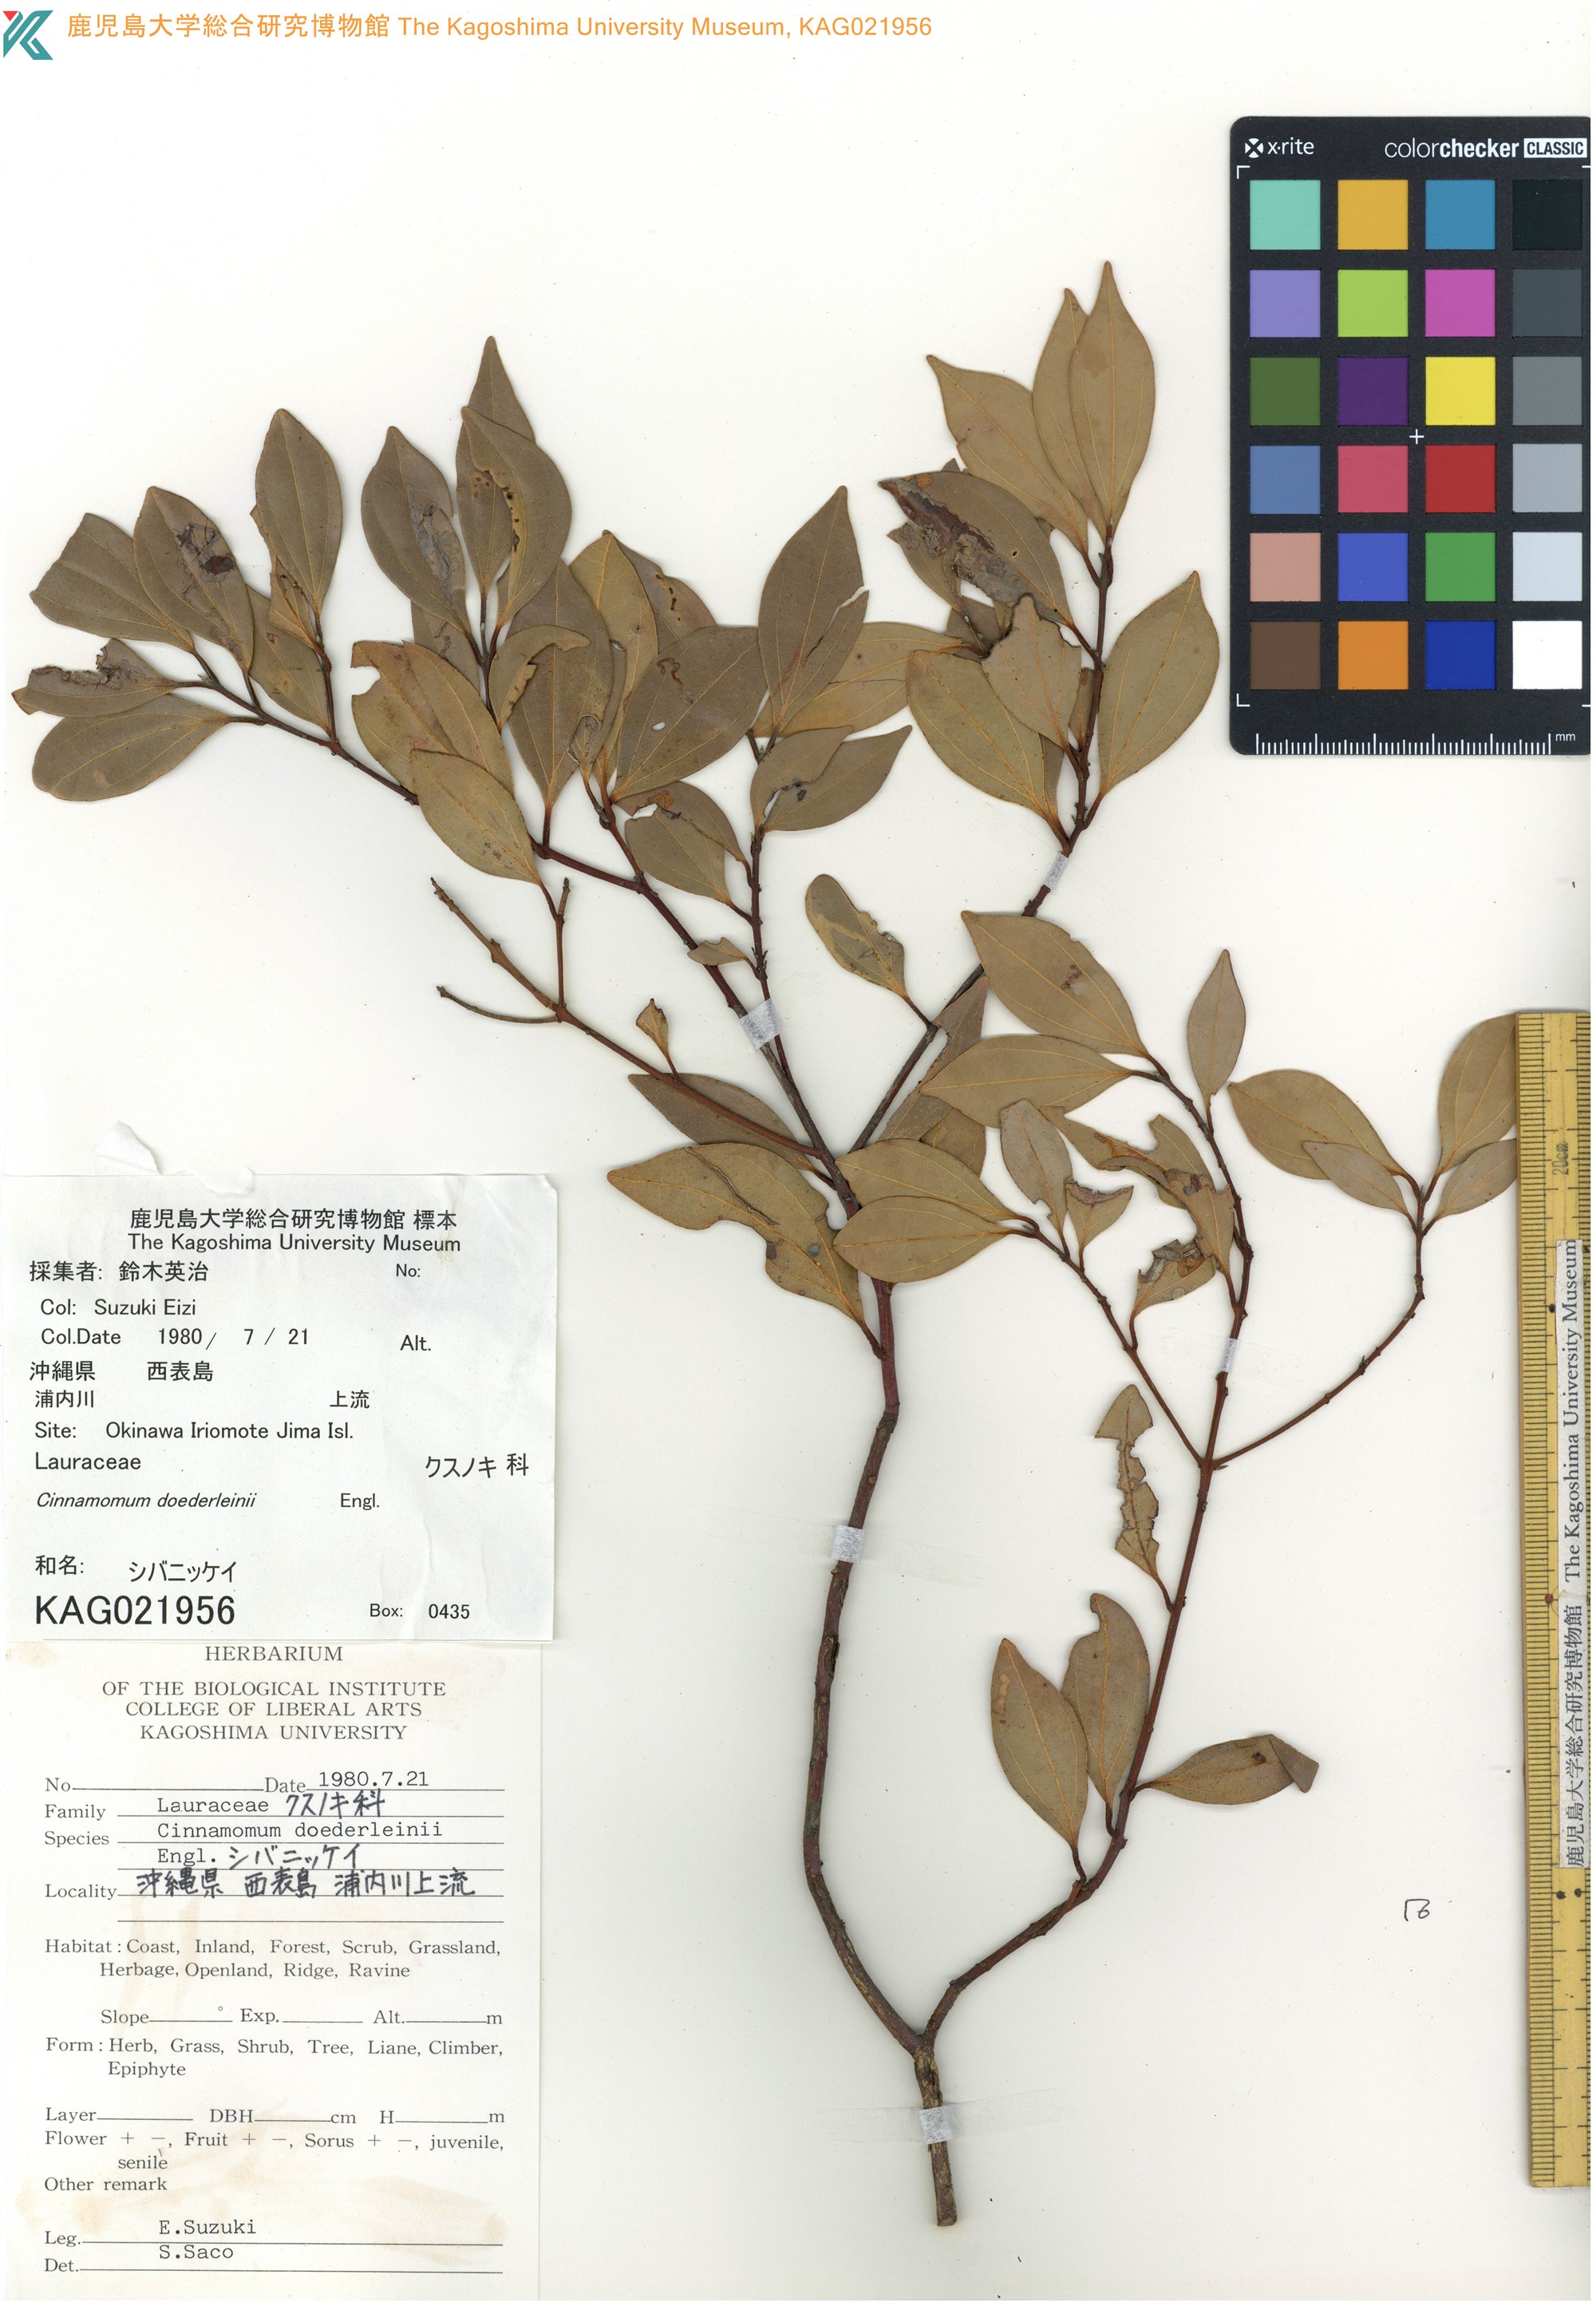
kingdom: Plantae
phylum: Tracheophyta
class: Magnoliopsida
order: Laurales
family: Lauraceae
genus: Cinnamomum
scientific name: Cinnamomum doederleinii
